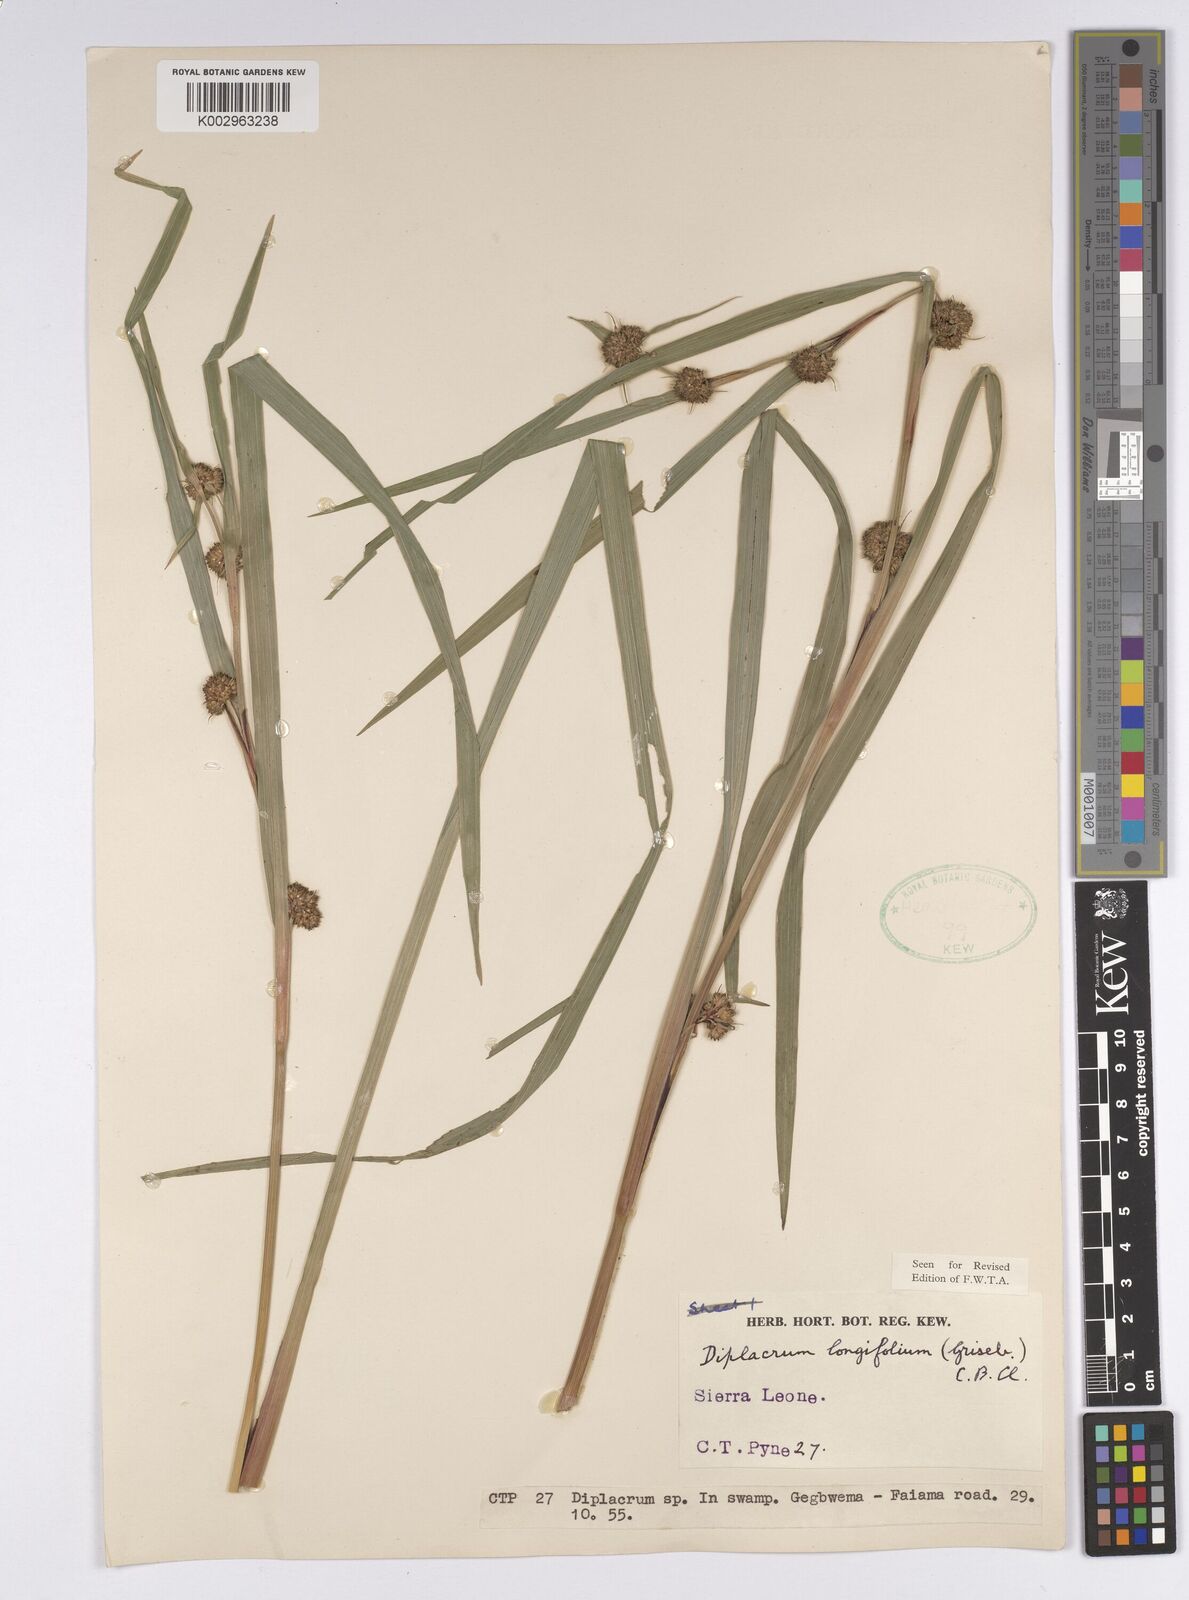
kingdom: Plantae
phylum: Tracheophyta
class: Liliopsida
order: Poales
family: Cyperaceae
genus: Diplacrum
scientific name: Diplacrum capitatum
